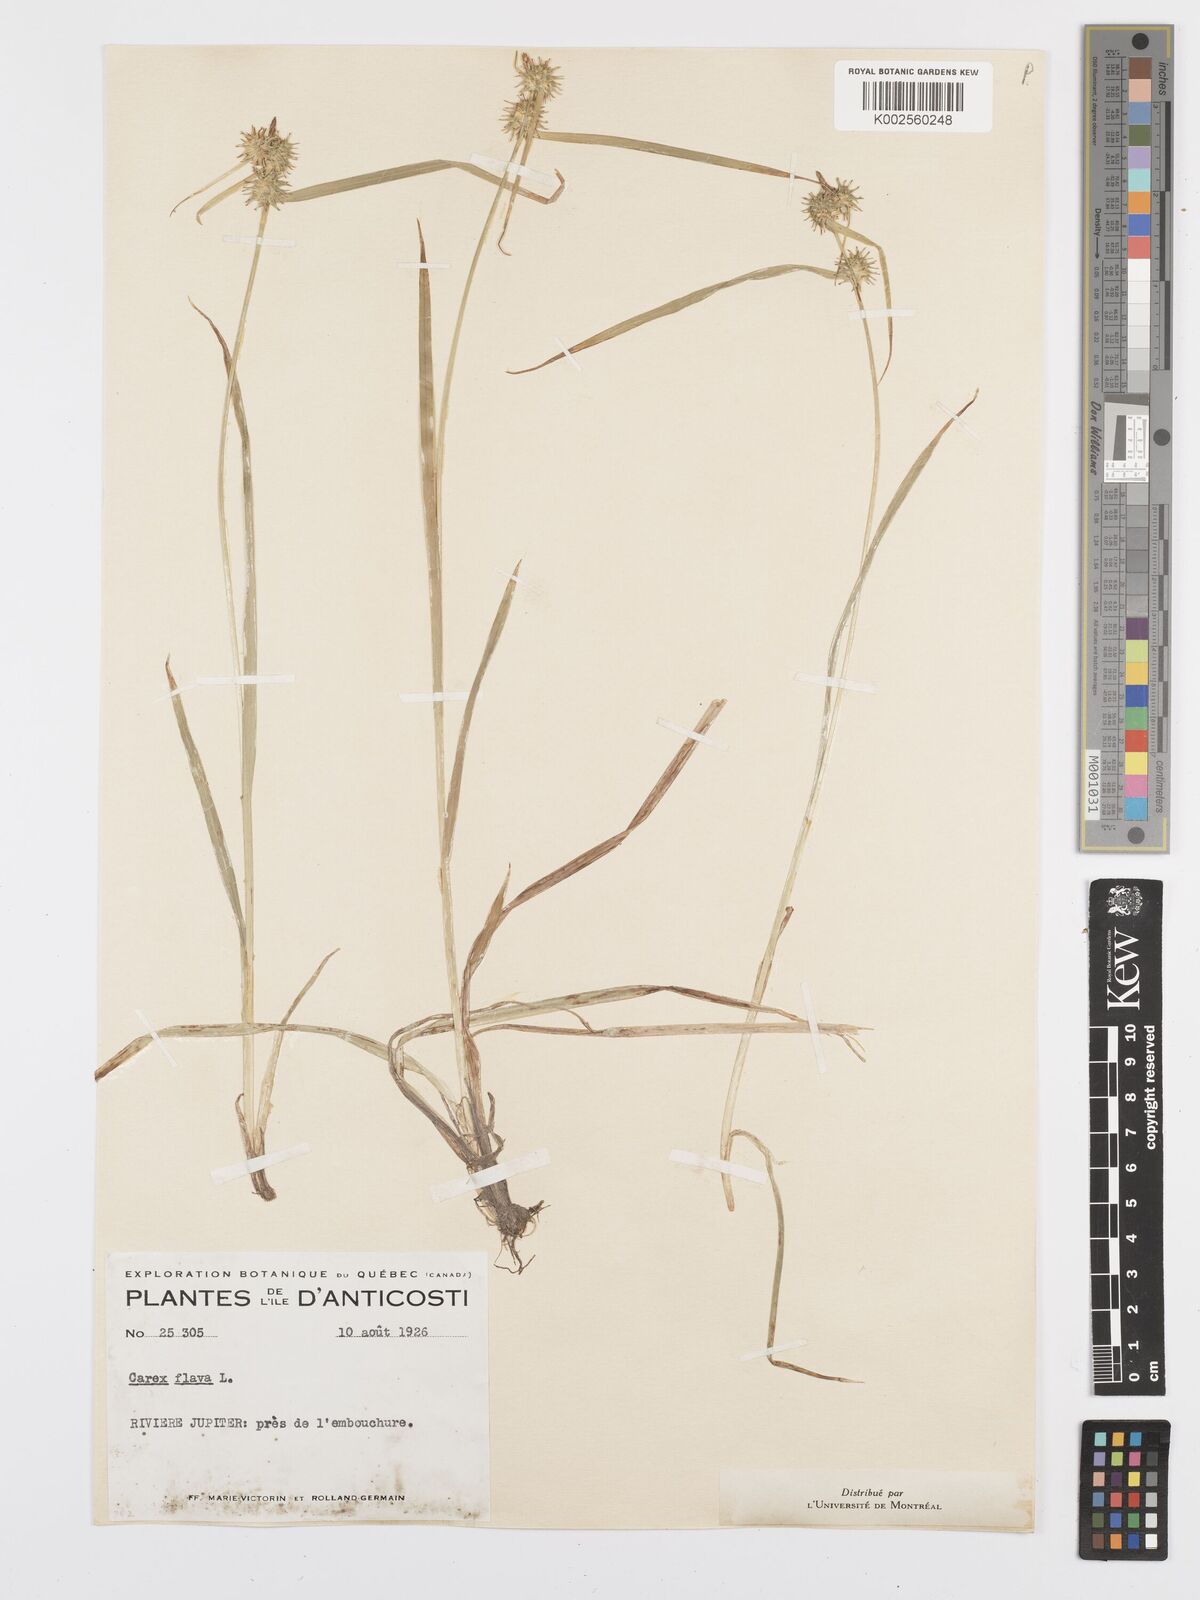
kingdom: Plantae
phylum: Tracheophyta
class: Liliopsida
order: Poales
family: Cyperaceae
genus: Carex
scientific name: Carex flava
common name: Large yellow-sedge
